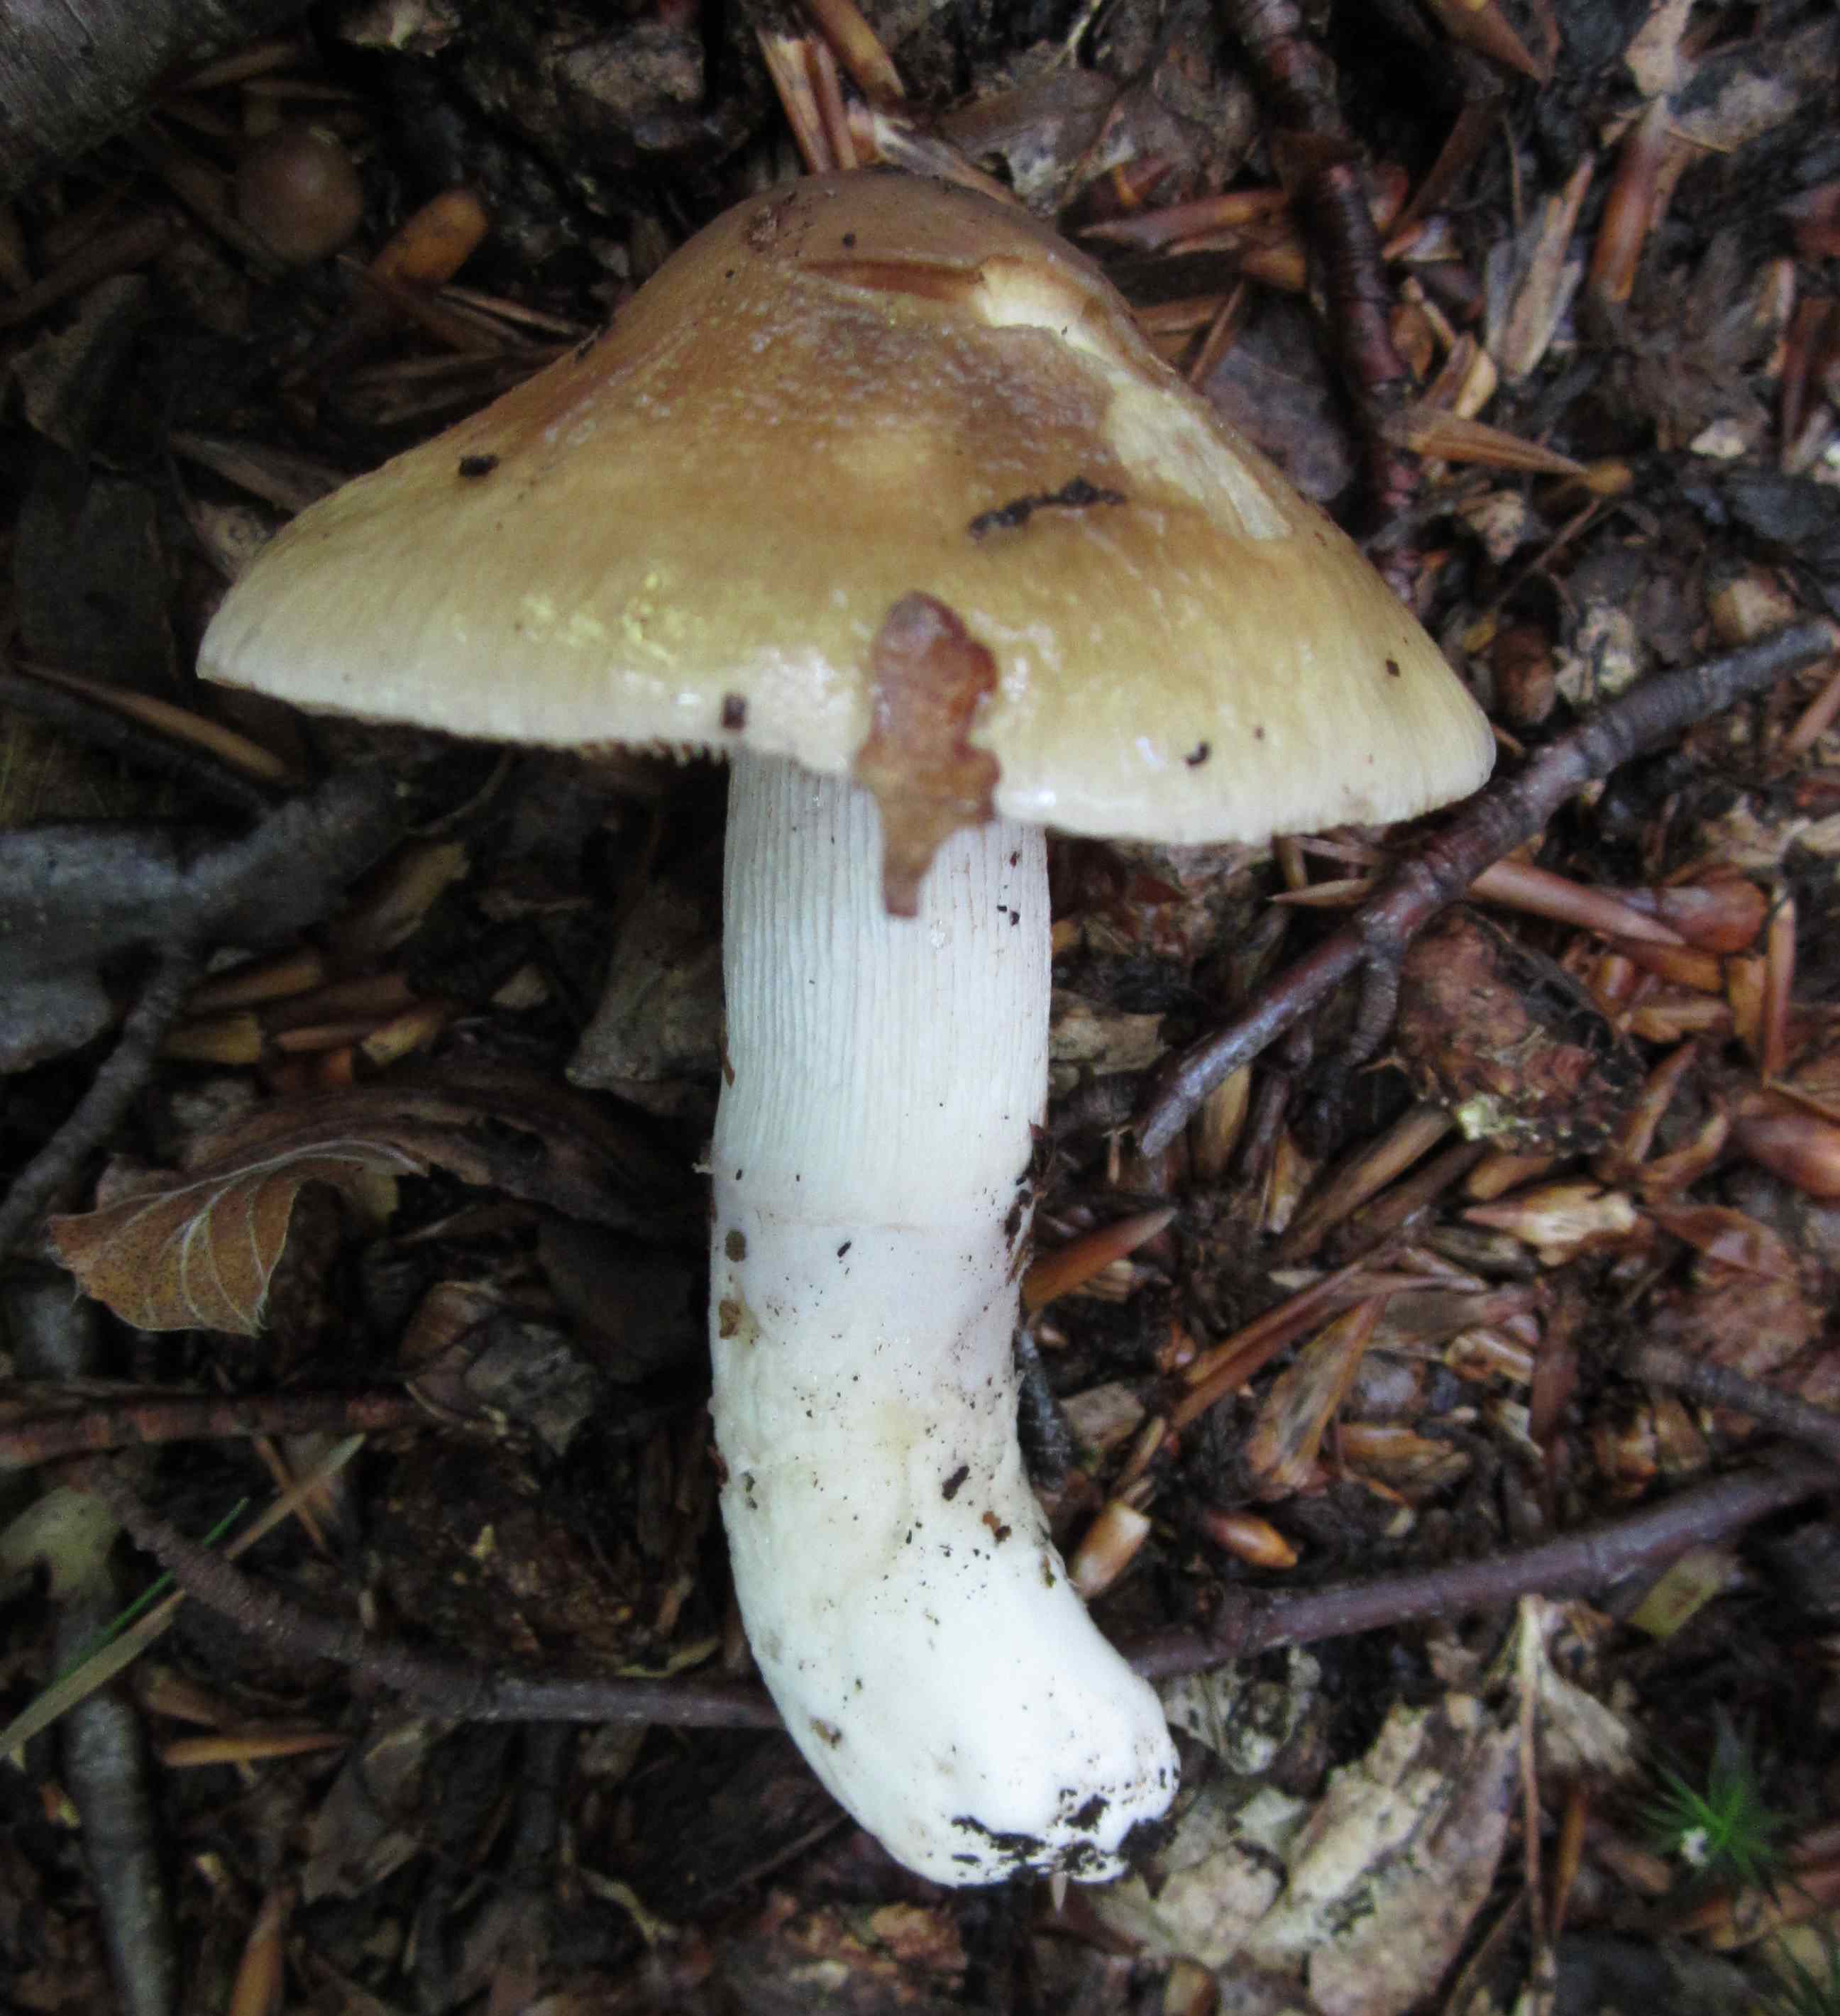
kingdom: Fungi
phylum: Basidiomycota
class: Agaricomycetes
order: Agaricales
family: Cortinariaceae
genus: Cortinarius
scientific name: Cortinarius elatior
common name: høj slørhat
